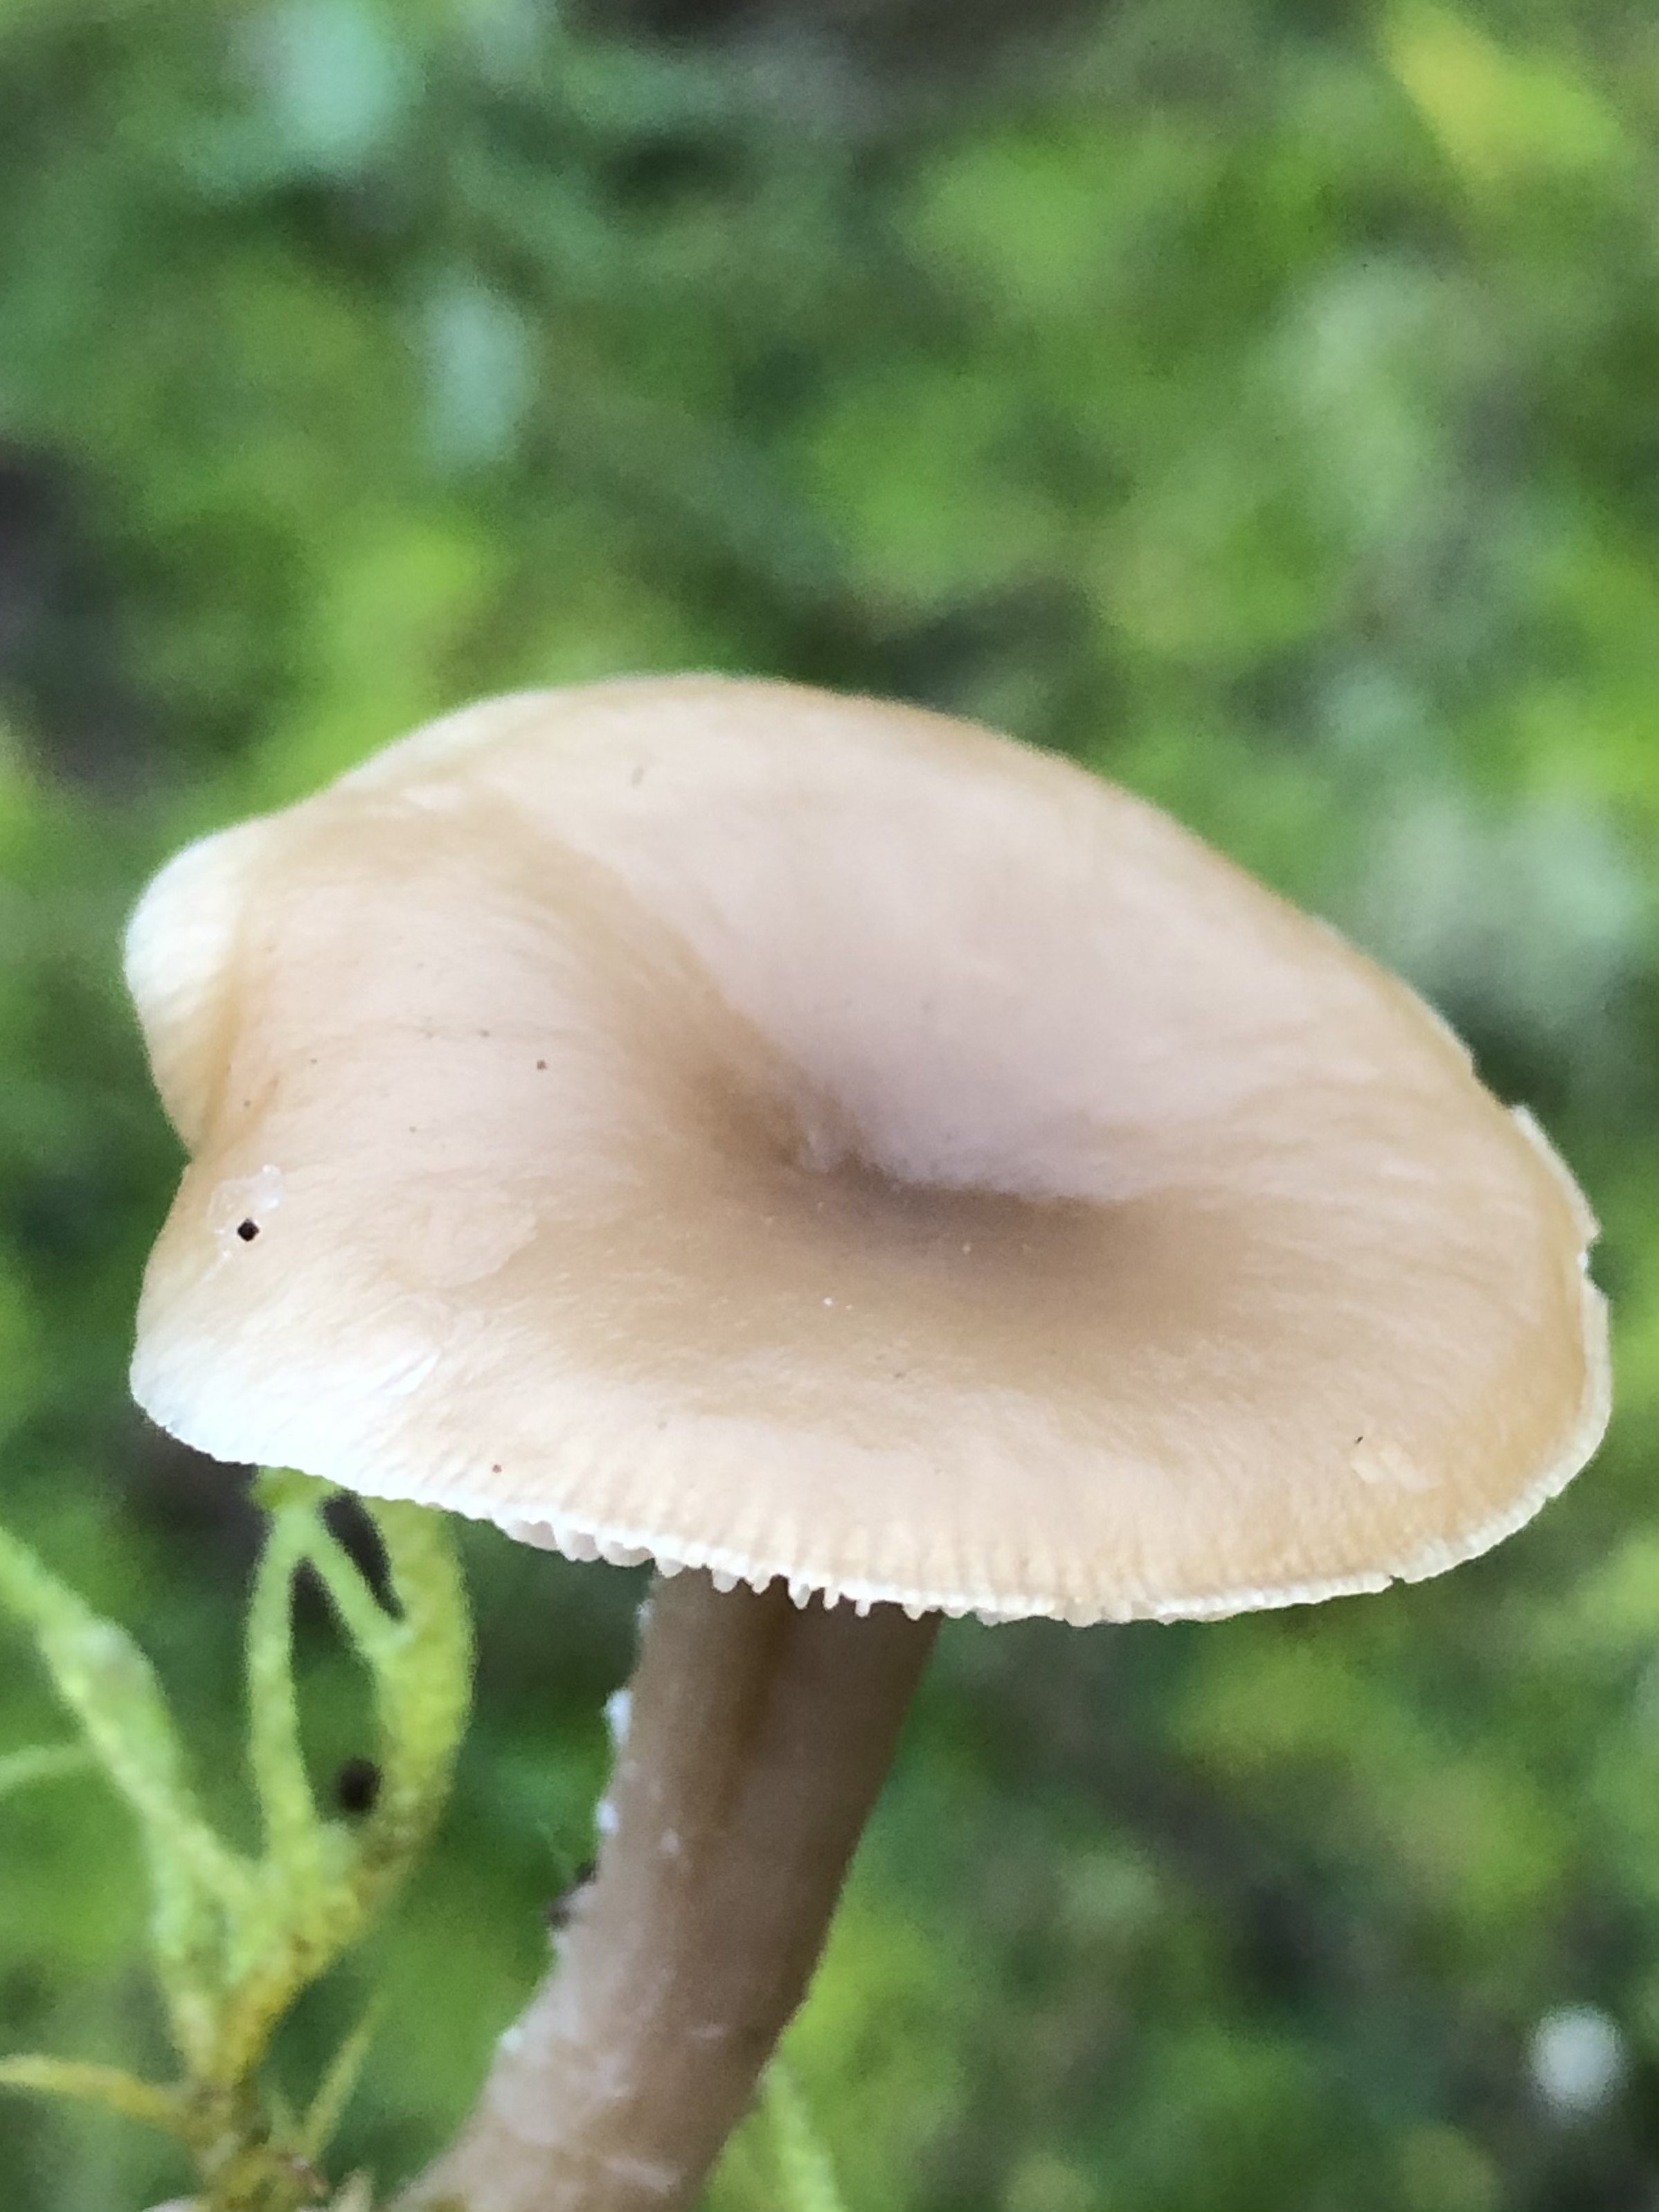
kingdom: Fungi
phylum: Basidiomycota
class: Agaricomycetes
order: Agaricales
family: Tricholomataceae
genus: Clitocybe
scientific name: Clitocybe fragrans
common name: vellugtende tragthat
